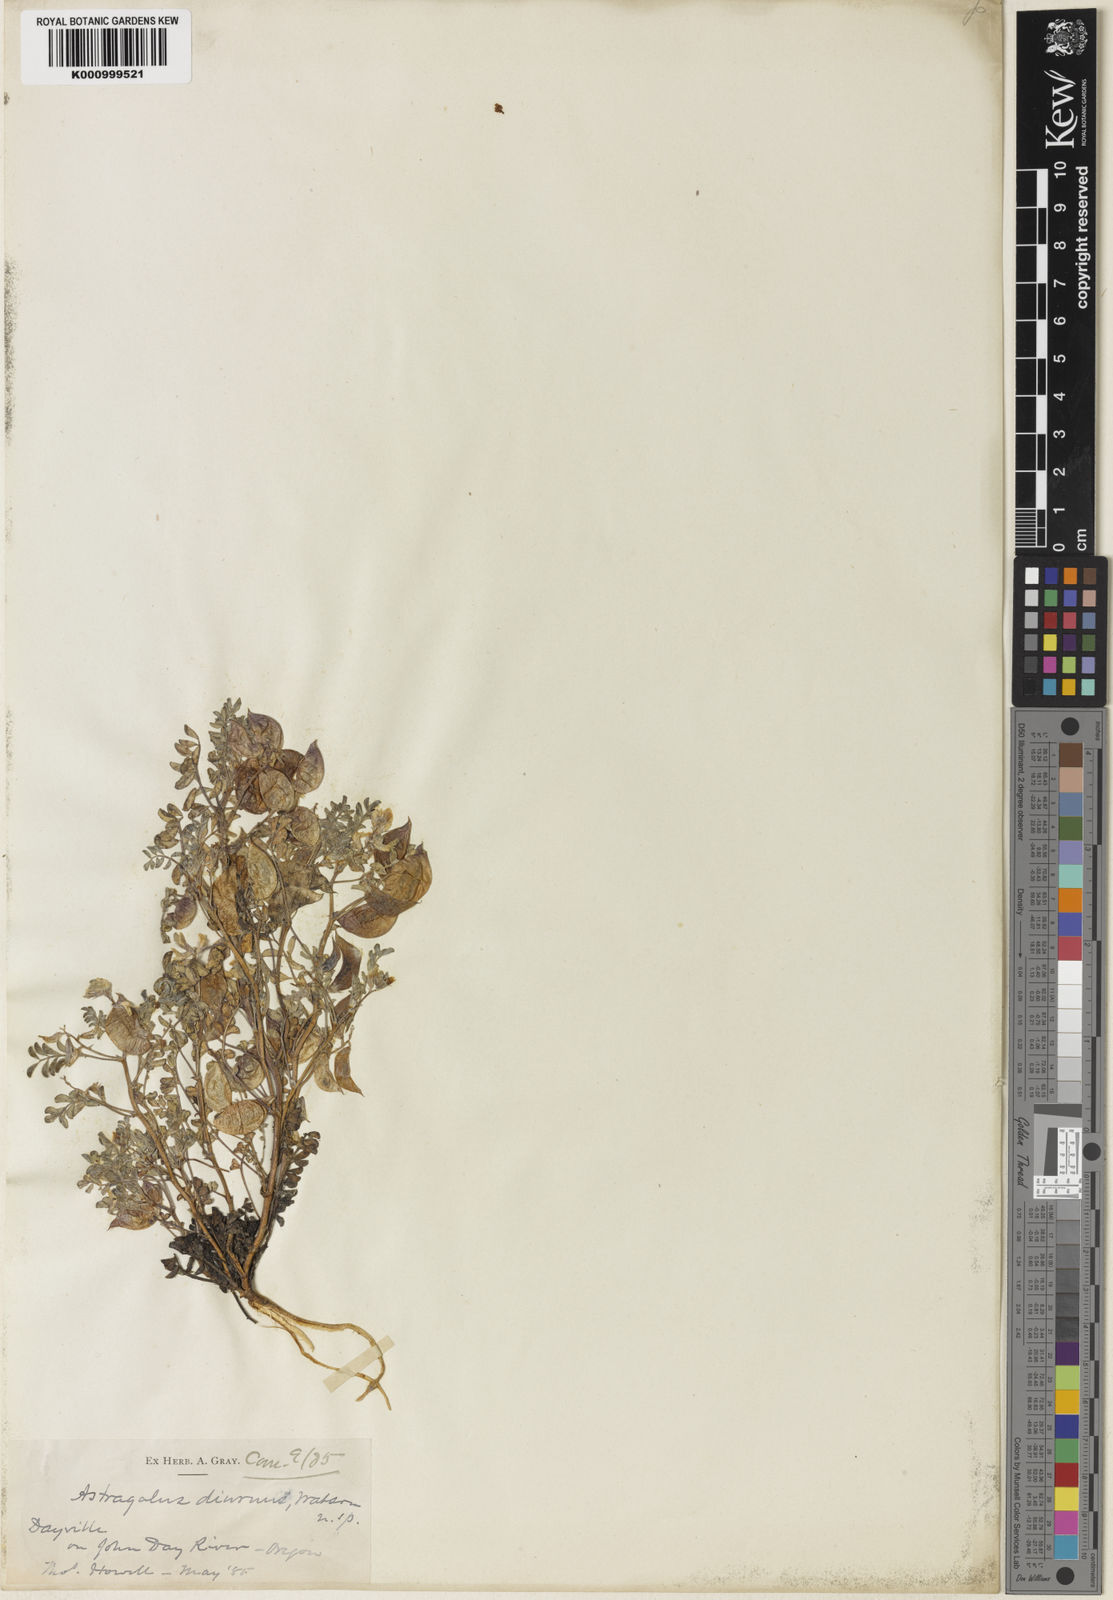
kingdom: Plantae
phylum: Tracheophyta
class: Magnoliopsida
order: Fabales
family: Fabaceae
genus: Astragalus
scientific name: Astragalus diaphanus
